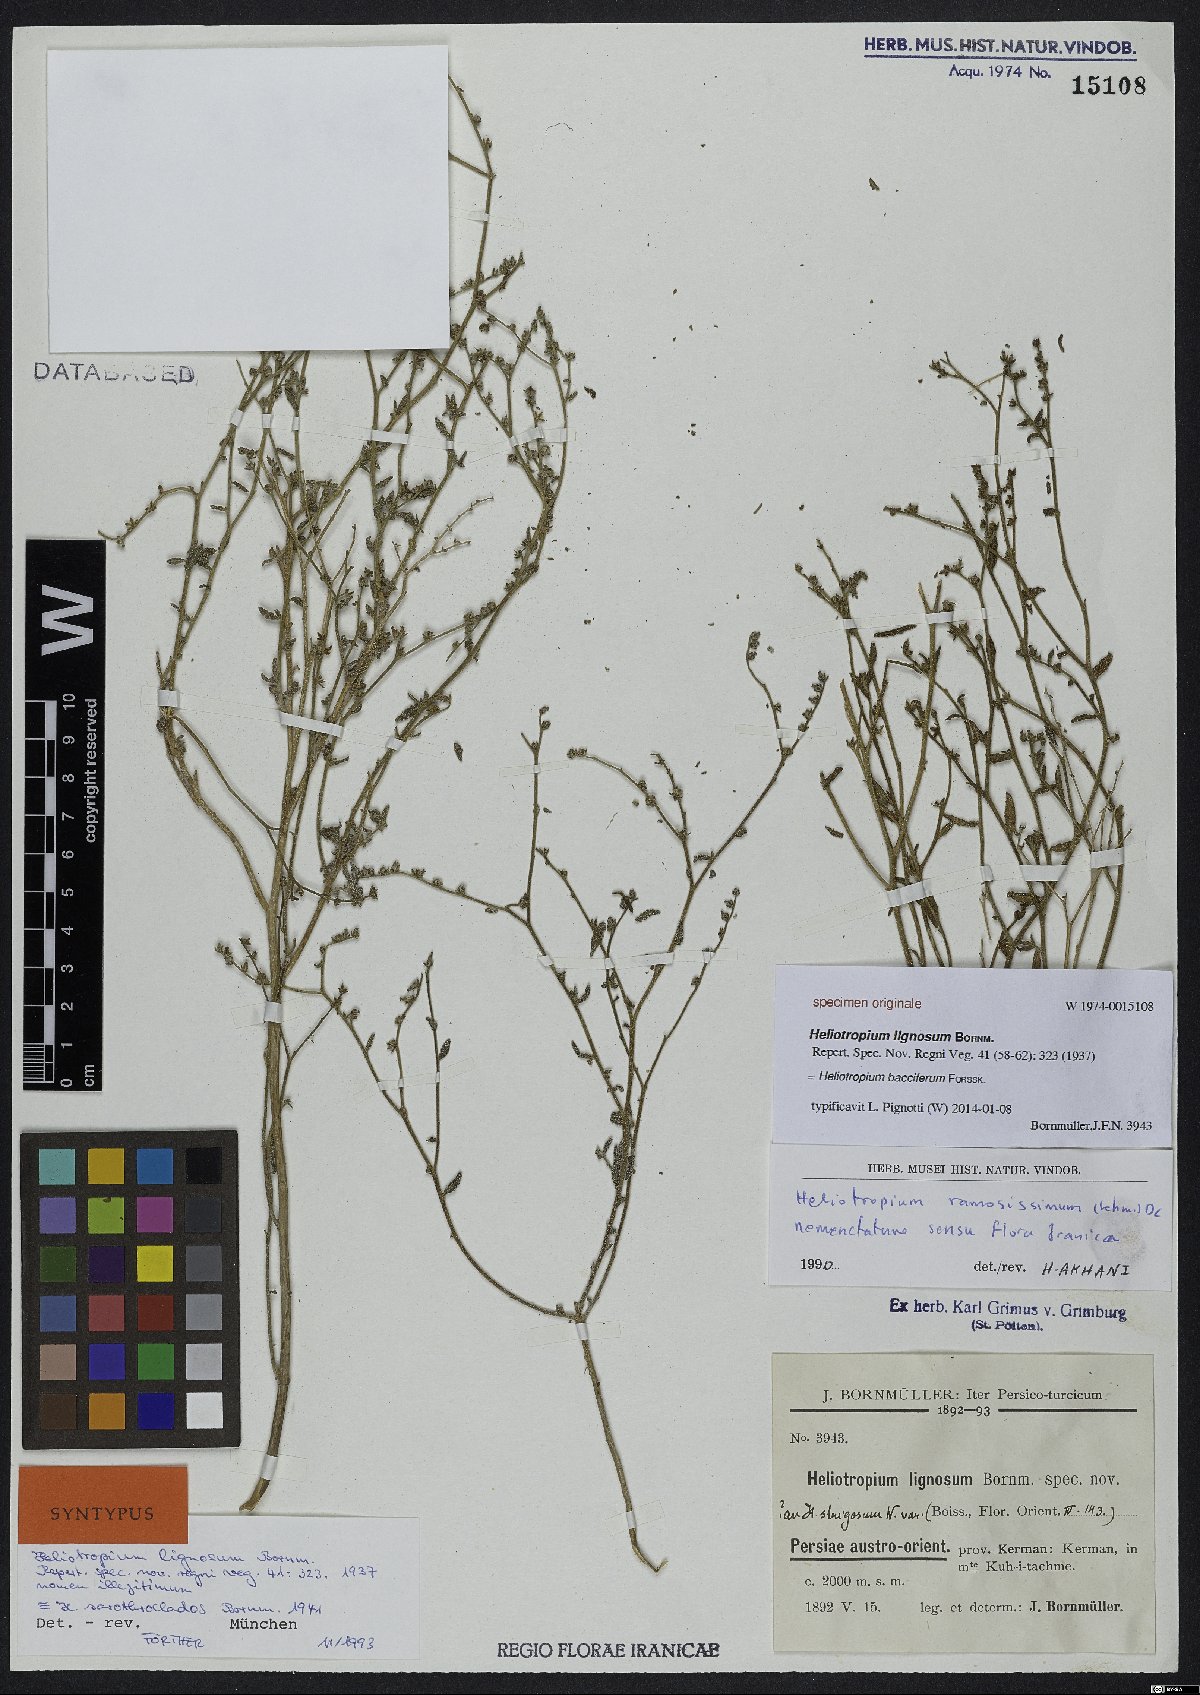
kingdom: Plantae
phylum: Tracheophyta
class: Magnoliopsida
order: Boraginales
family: Heliotropiaceae
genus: Heliotropium
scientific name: Heliotropium bacciferum
